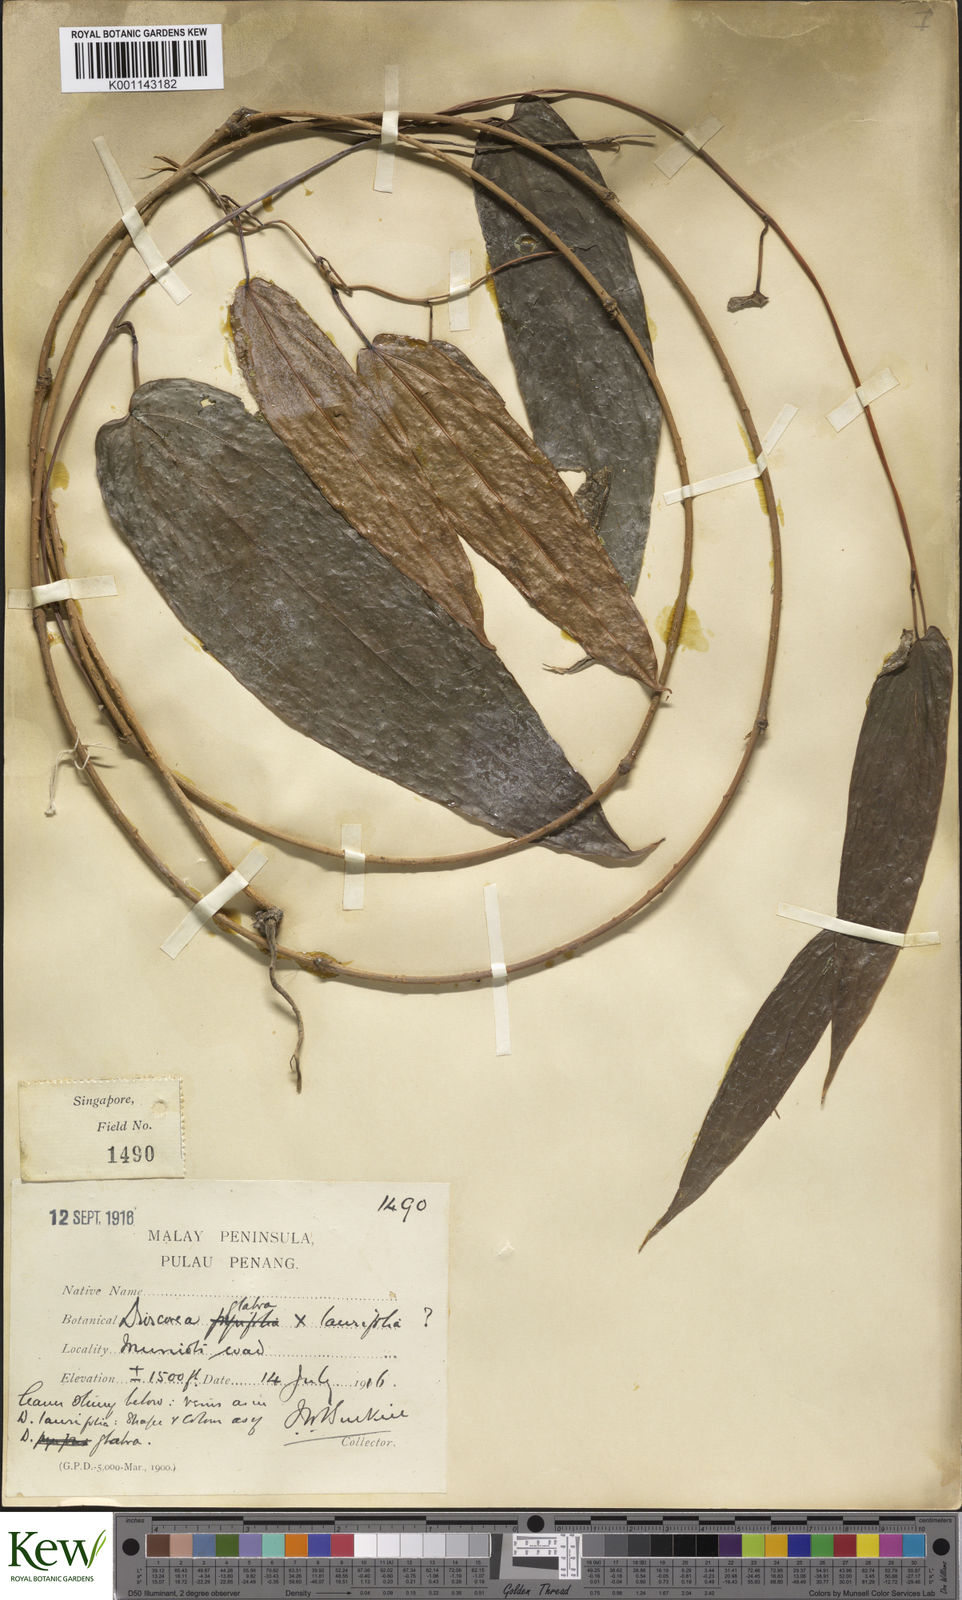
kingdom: Plantae
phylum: Tracheophyta
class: Liliopsida
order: Dioscoreales
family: Dioscoreaceae
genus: Dioscorea
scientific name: Dioscorea laurifolia
